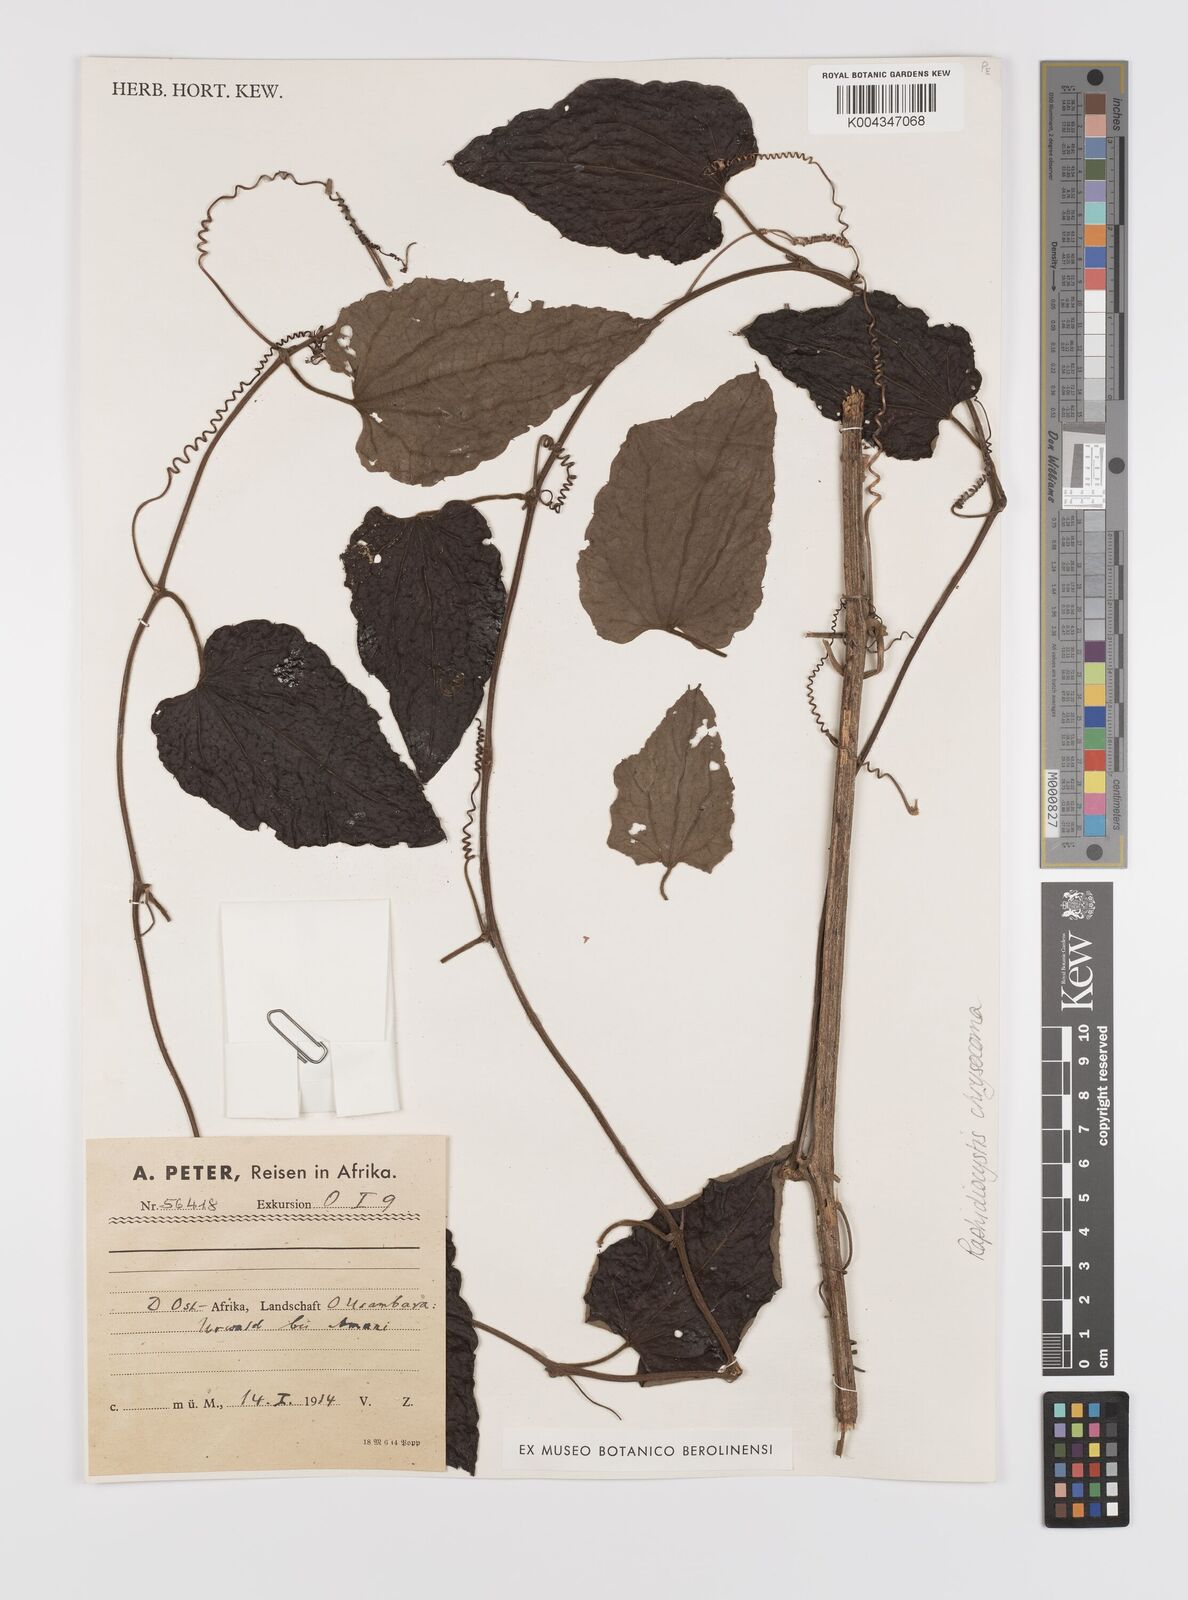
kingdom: Plantae
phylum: Tracheophyta
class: Magnoliopsida
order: Cucurbitales
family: Cucurbitaceae
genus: Raphidiocystis
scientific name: Raphidiocystis chrysocoma
